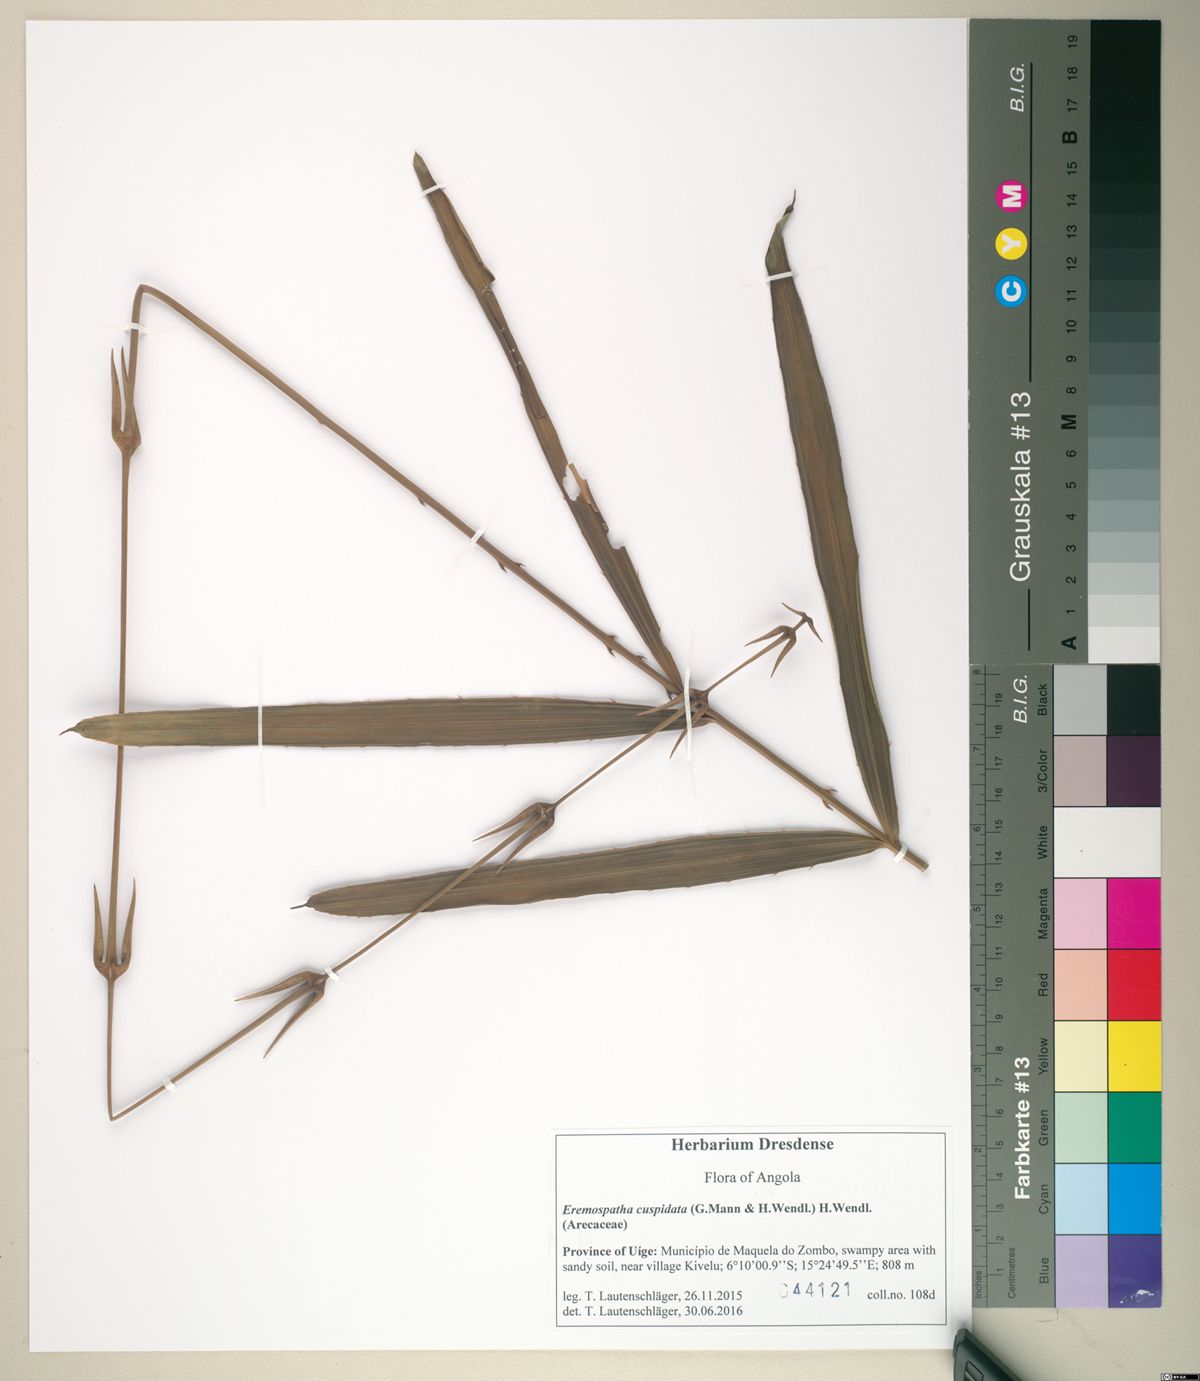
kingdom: Plantae
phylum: Tracheophyta
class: Liliopsida
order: Arecales
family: Arecaceae
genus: Eremospatha
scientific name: Eremospatha cuspidata
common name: Rattan
